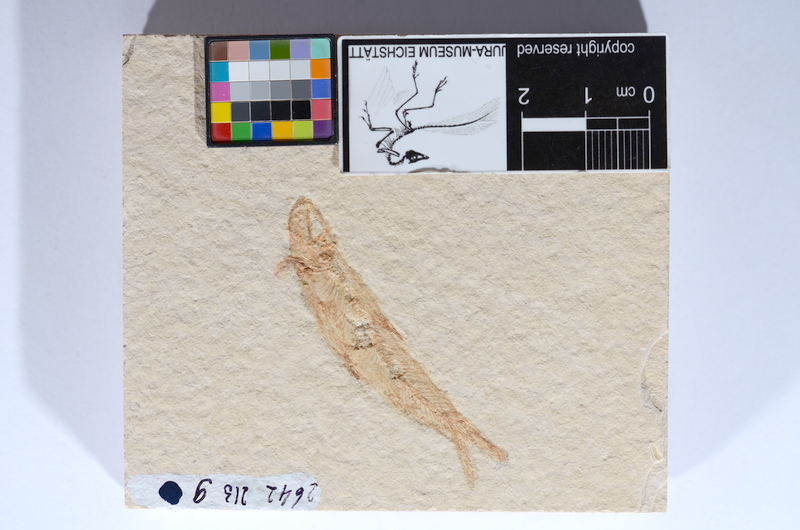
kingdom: Animalia
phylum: Chordata
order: Salmoniformes
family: Orthogonikleithridae
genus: Leptolepides
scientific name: Leptolepides sprattiformis
